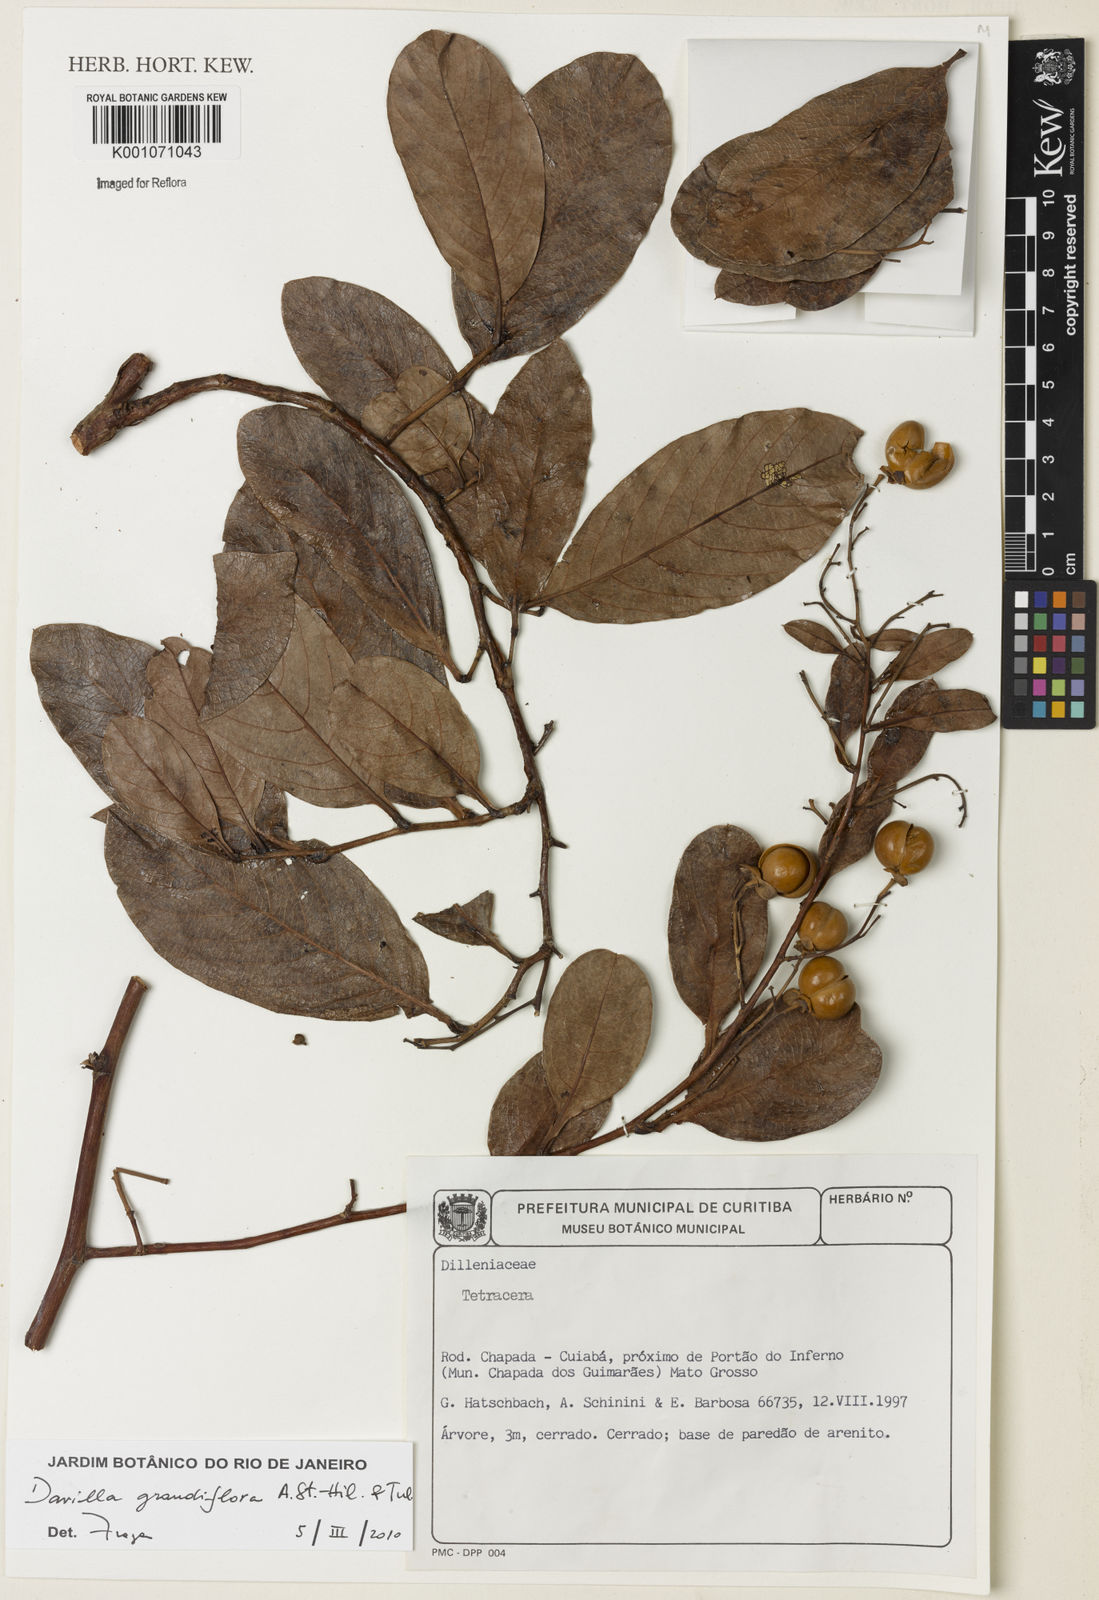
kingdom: Plantae
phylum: Tracheophyta
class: Magnoliopsida
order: Dilleniales
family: Dilleniaceae
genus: Davilla
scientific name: Davilla grandiflora
